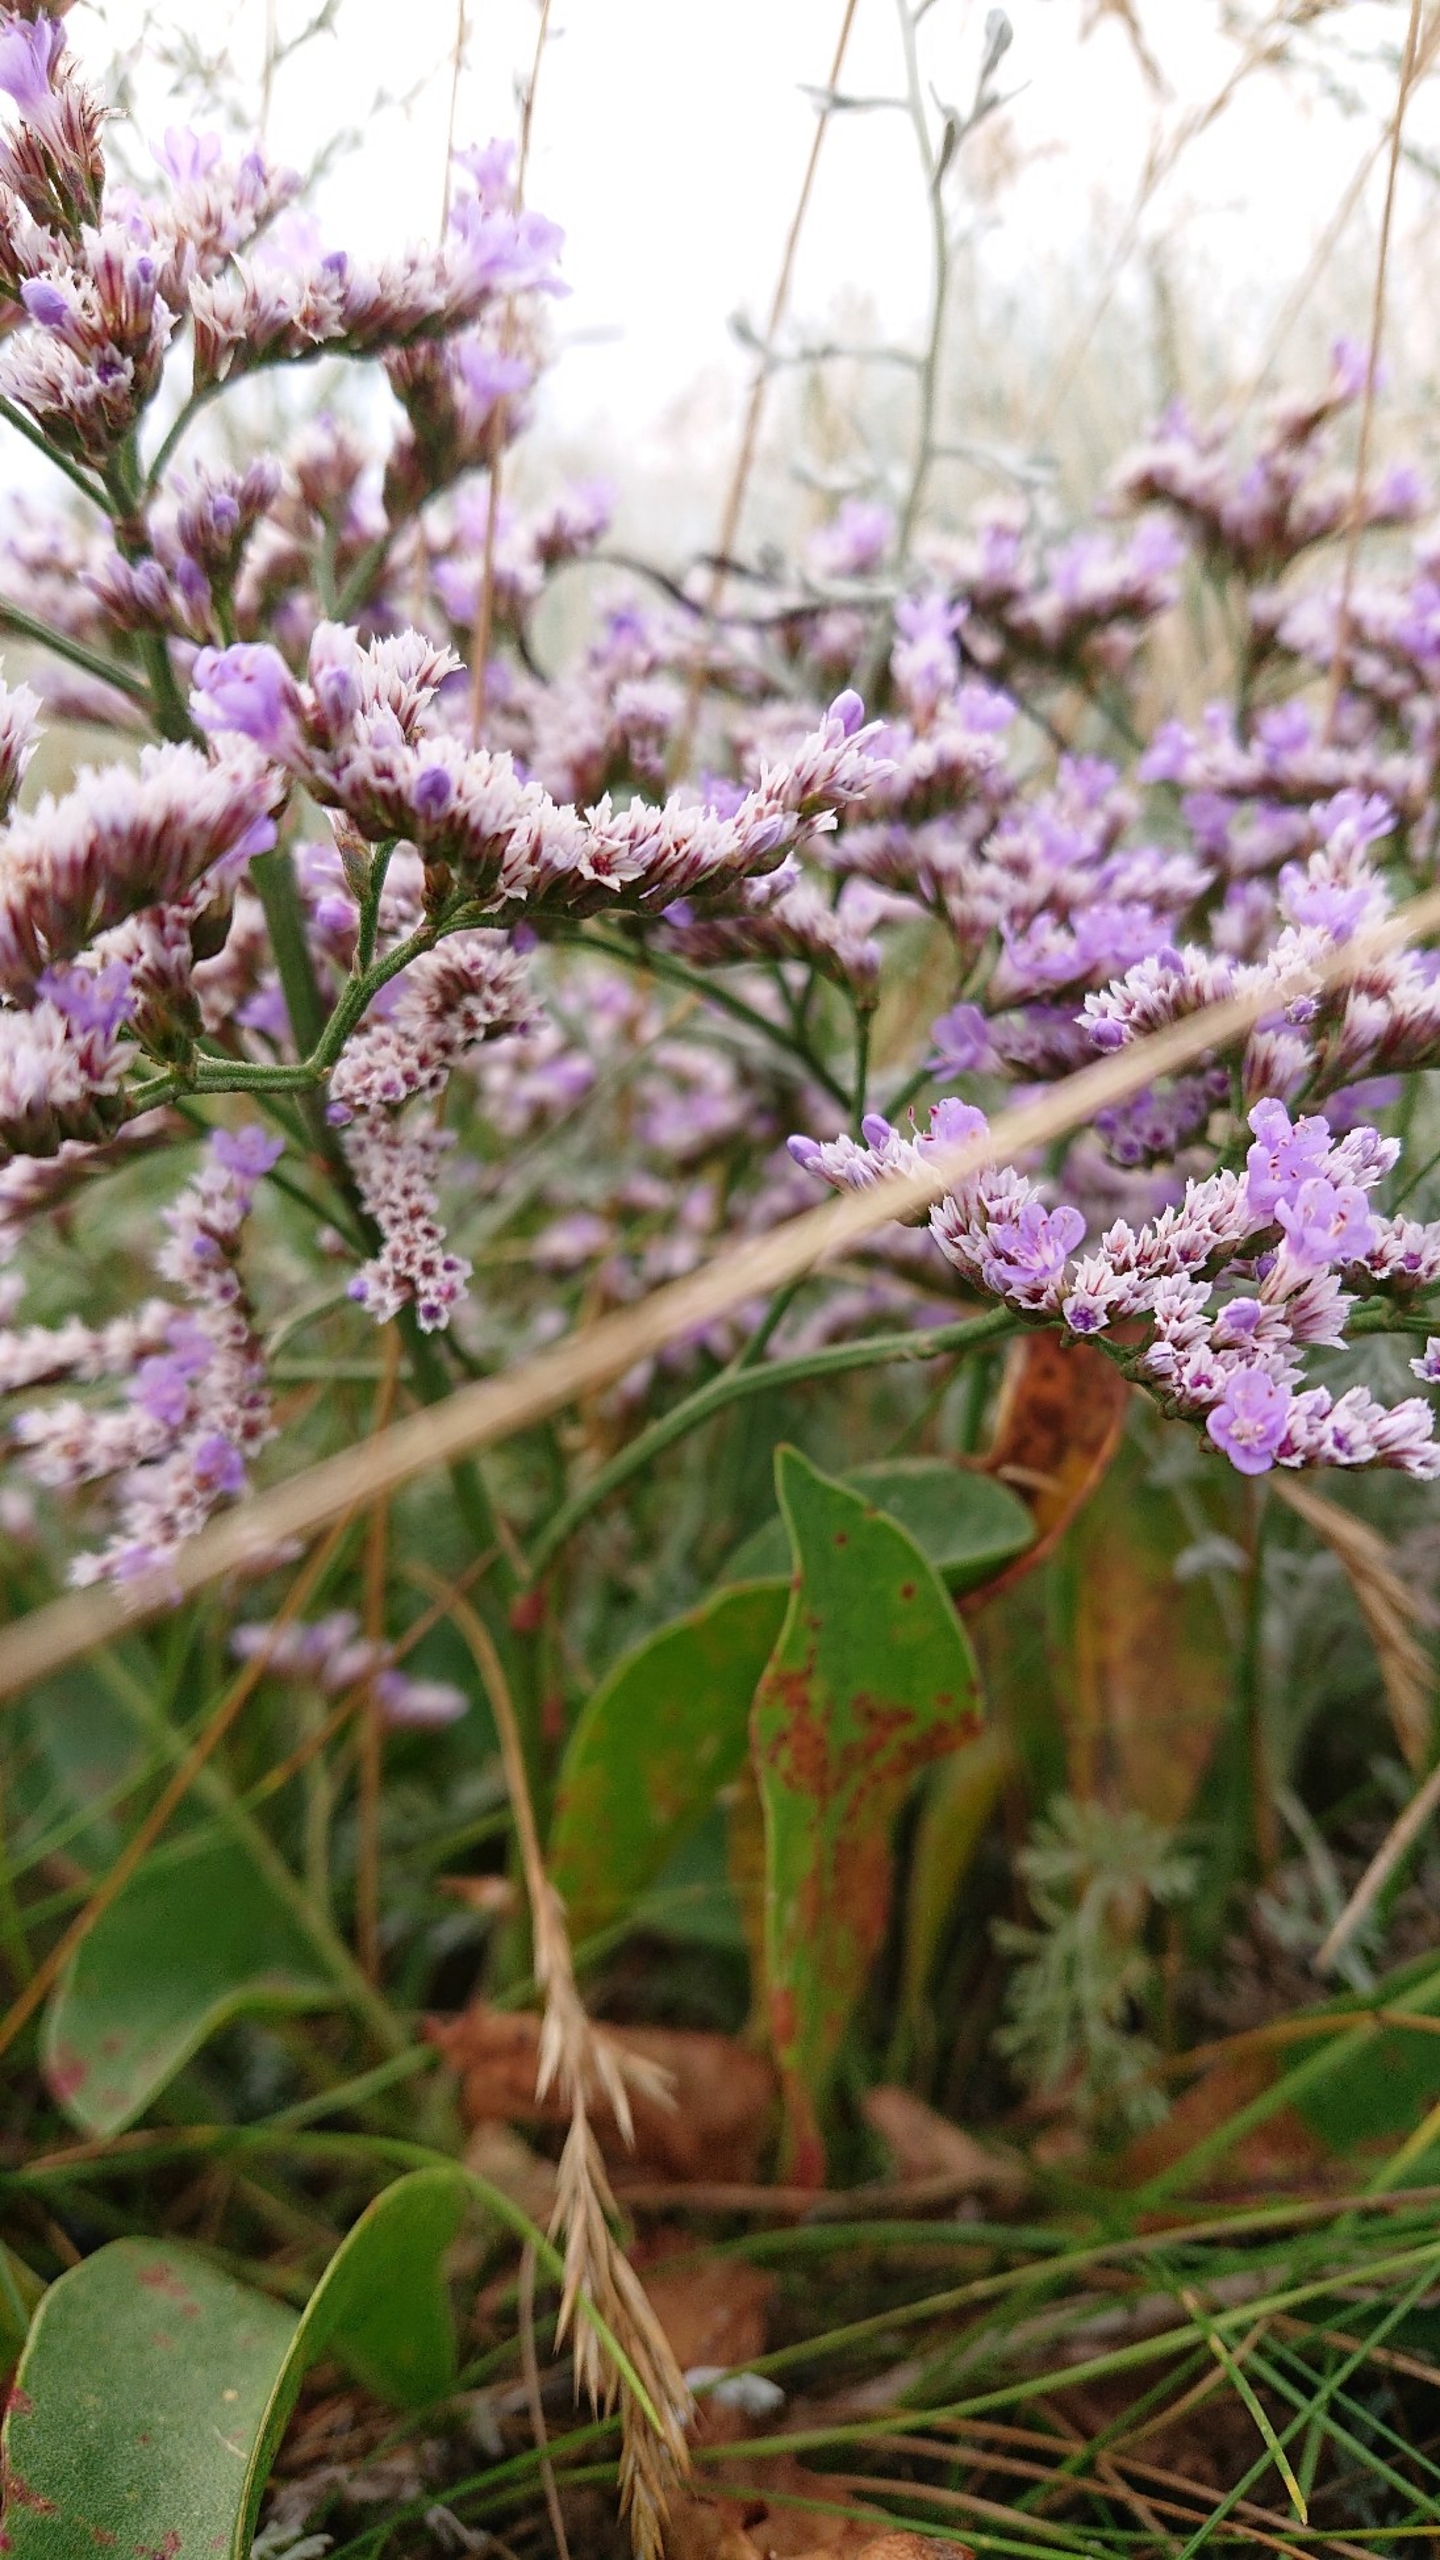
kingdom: Plantae
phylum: Tracheophyta
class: Magnoliopsida
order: Caryophyllales
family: Plumbaginaceae
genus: Limonium
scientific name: Limonium vulgare
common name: Tætblomstret hindebæger
